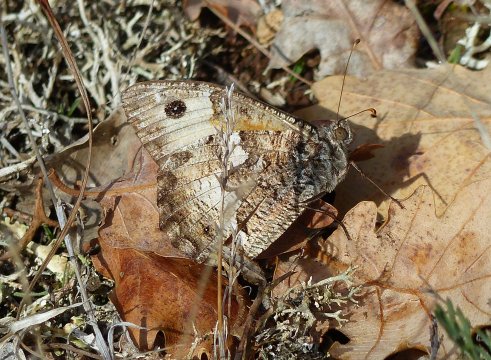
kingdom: Animalia
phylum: Arthropoda
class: Insecta
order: Lepidoptera
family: Nymphalidae
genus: Hipparchia
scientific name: Hipparchia statilinus
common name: Tree Grayling
